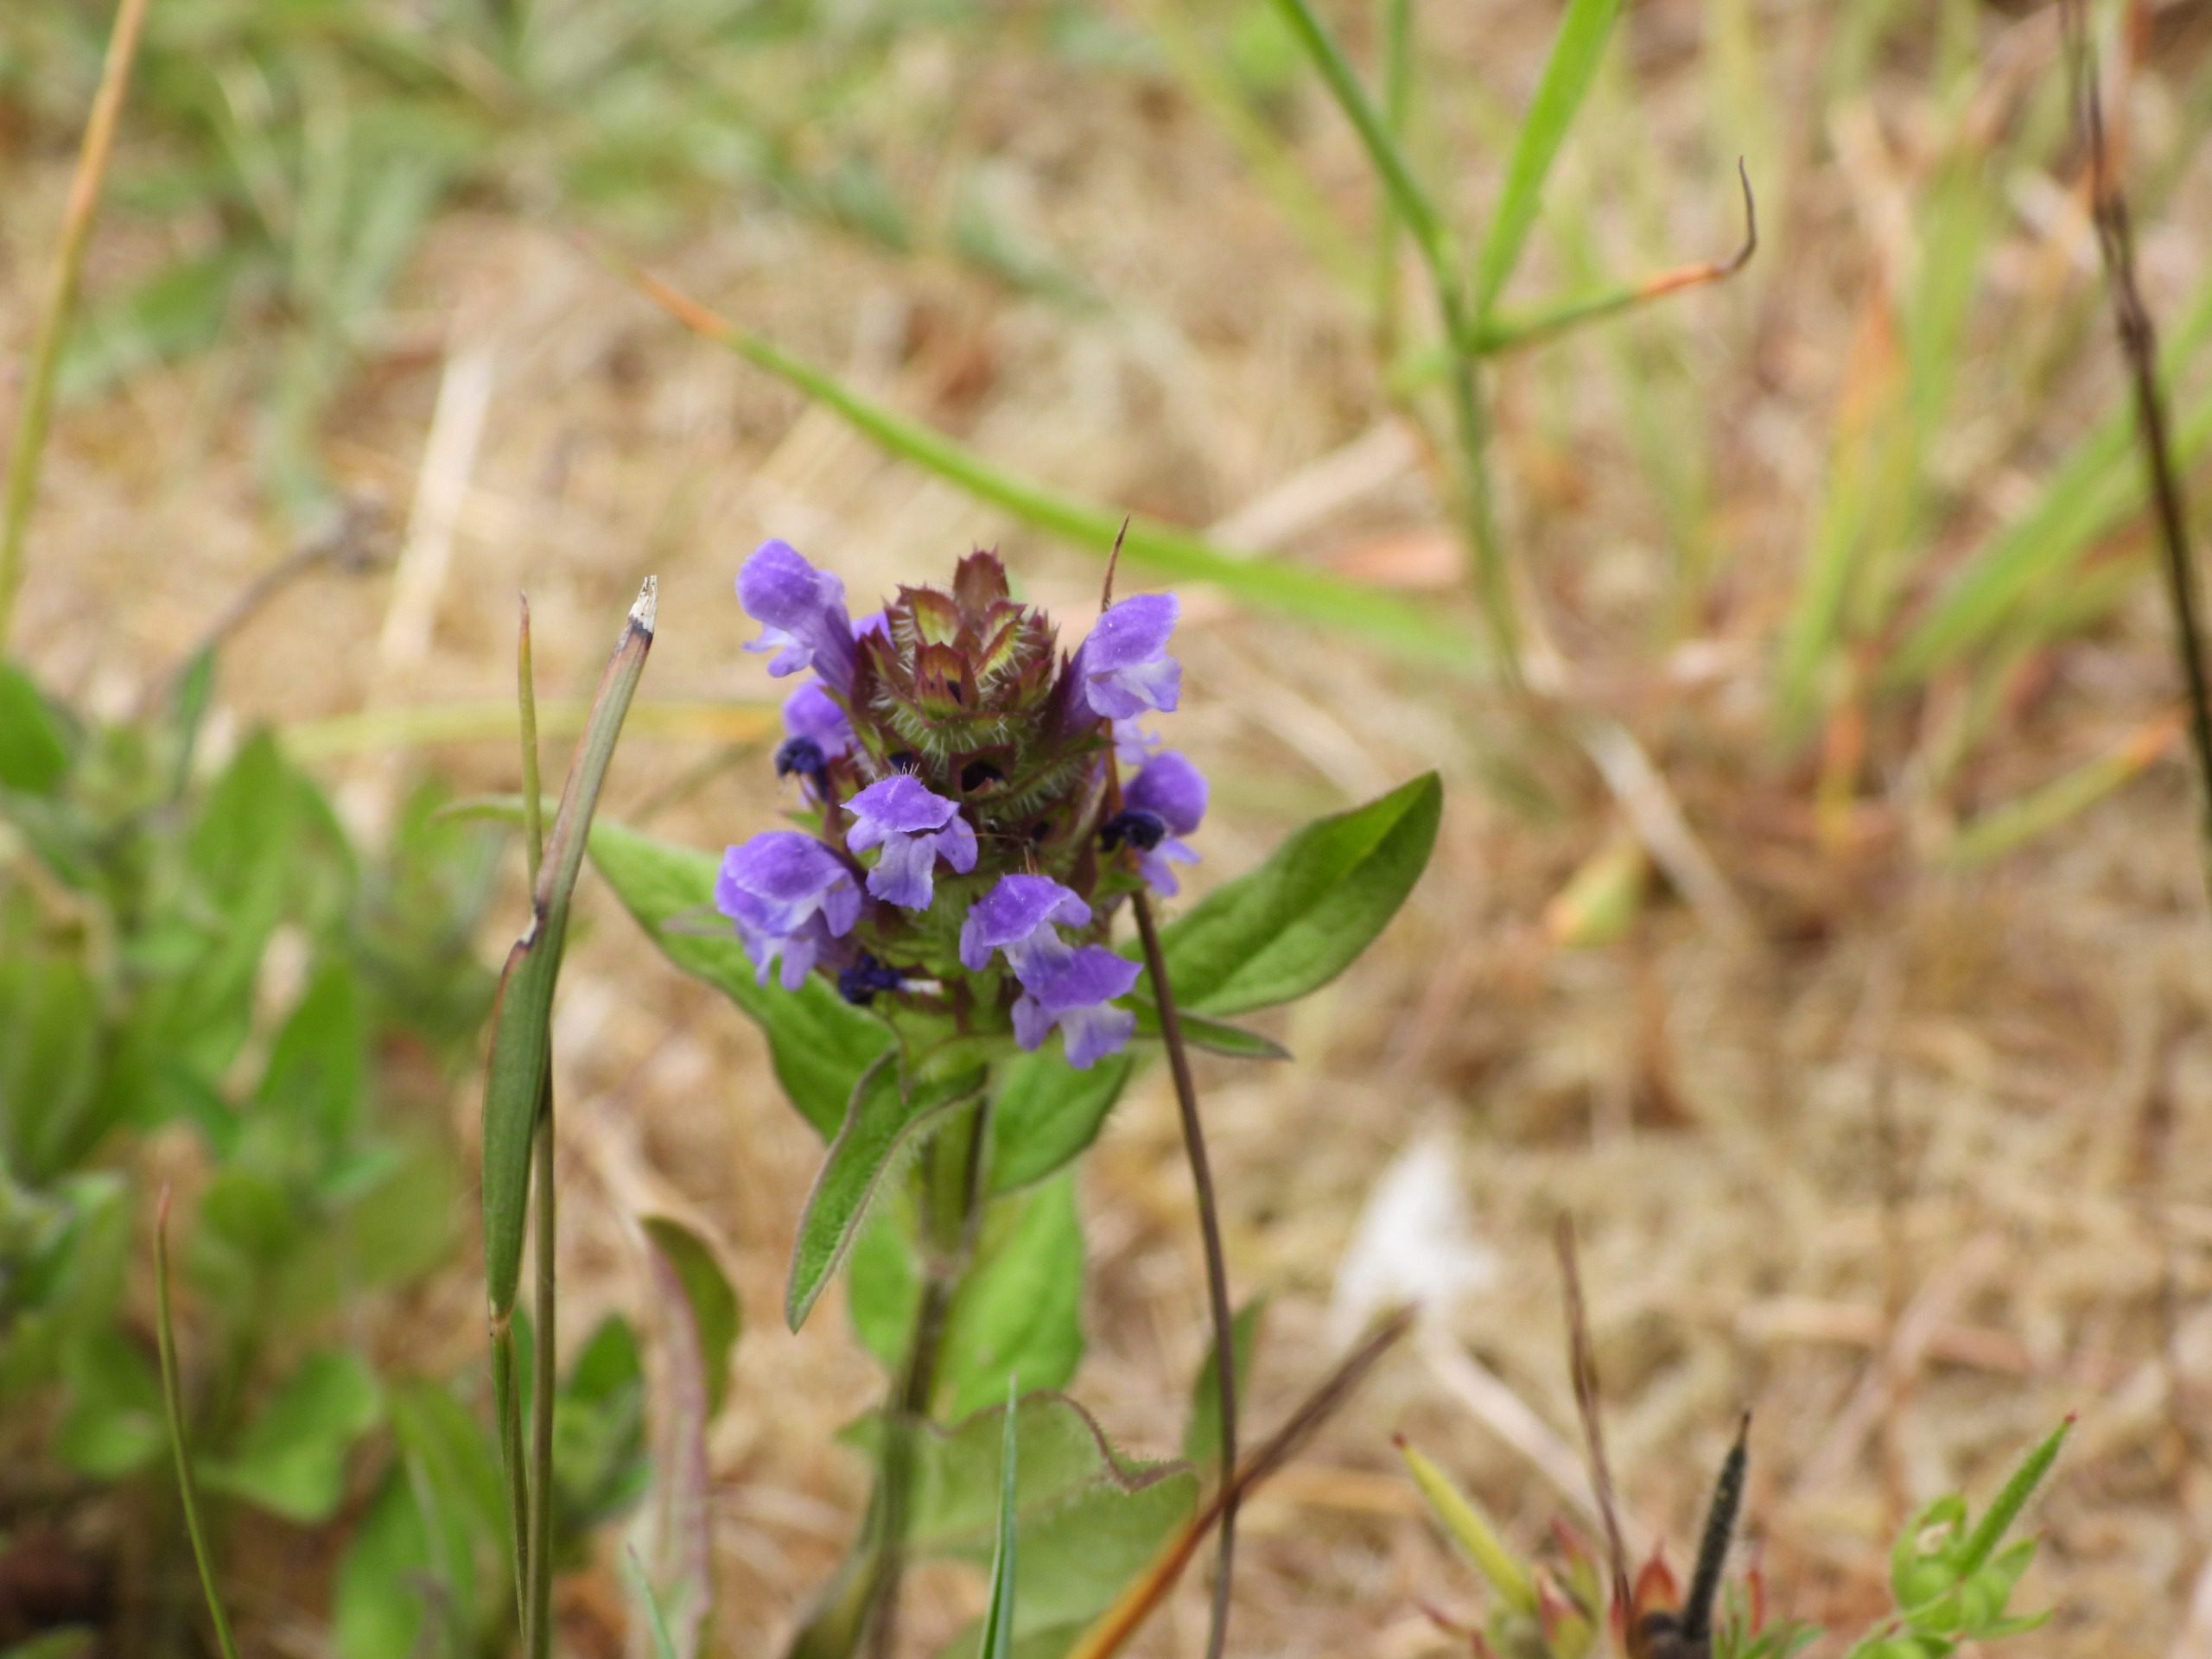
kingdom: Plantae
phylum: Tracheophyta
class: Magnoliopsida
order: Lamiales
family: Lamiaceae
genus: Prunella
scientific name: Prunella vulgaris
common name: Almindelig brunelle
